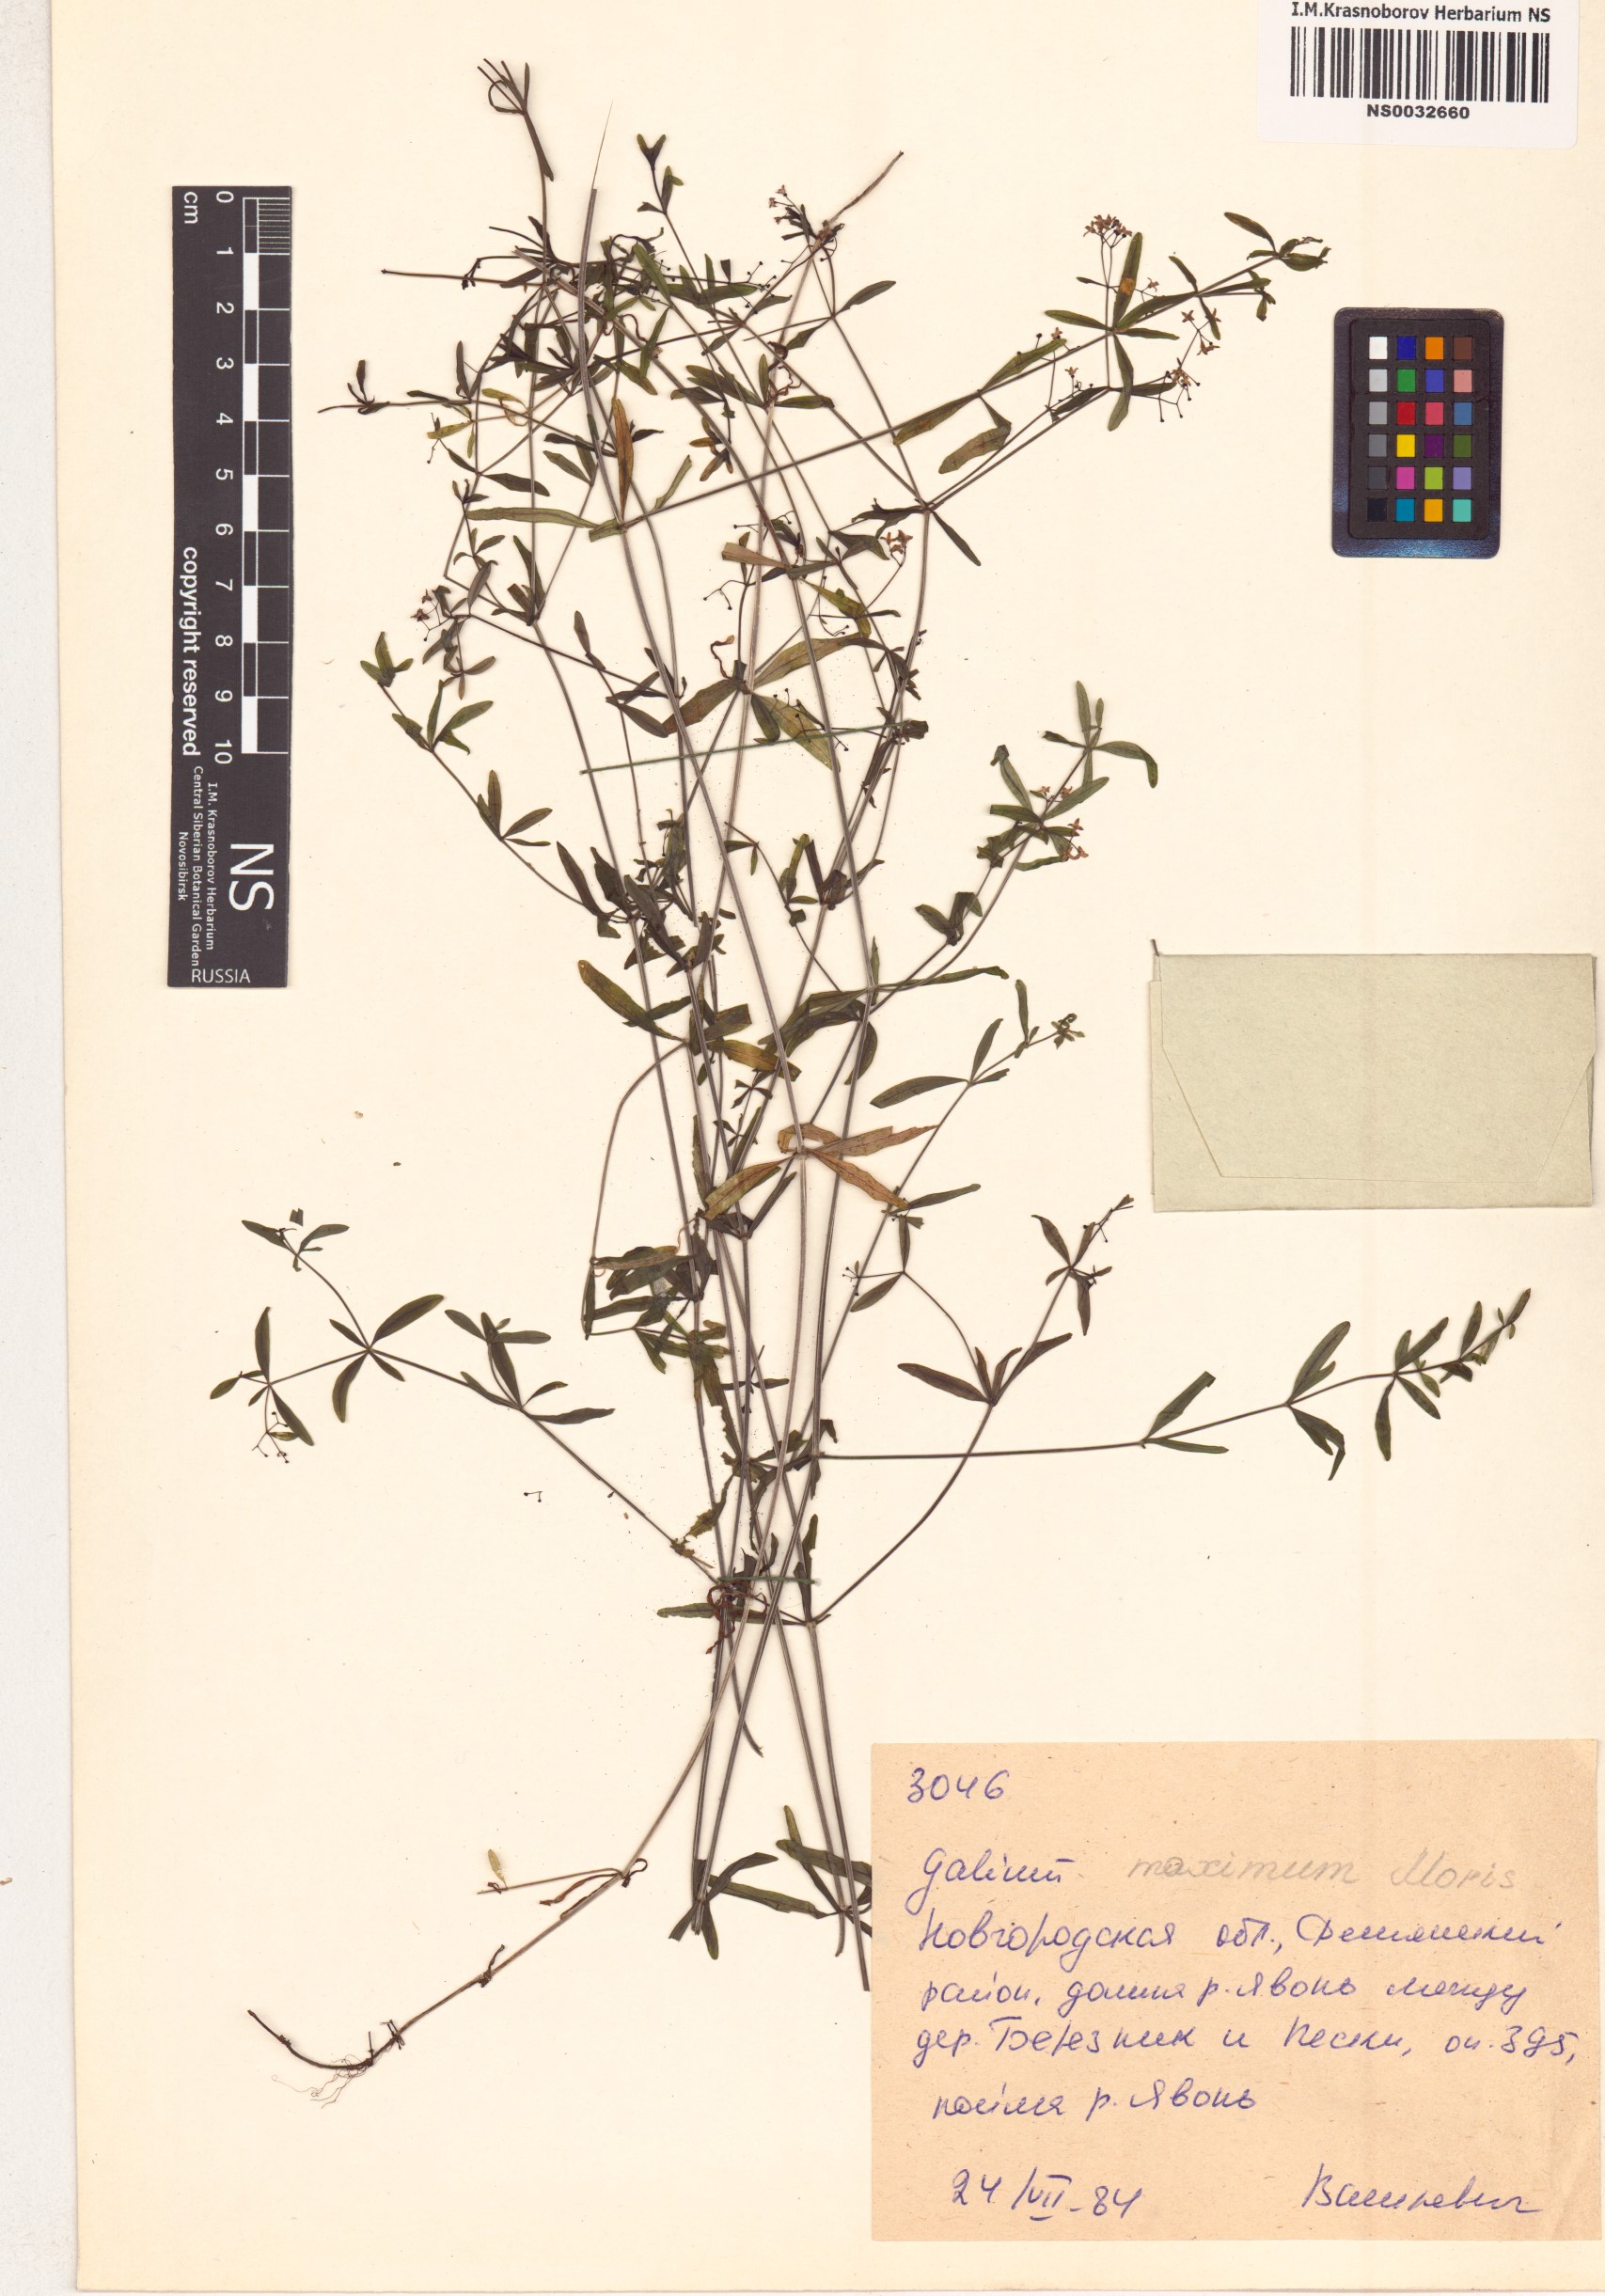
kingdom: Plantae
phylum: Tracheophyta
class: Magnoliopsida
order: Gentianales
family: Rubiaceae
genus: Galium
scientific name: Galium elongatum
